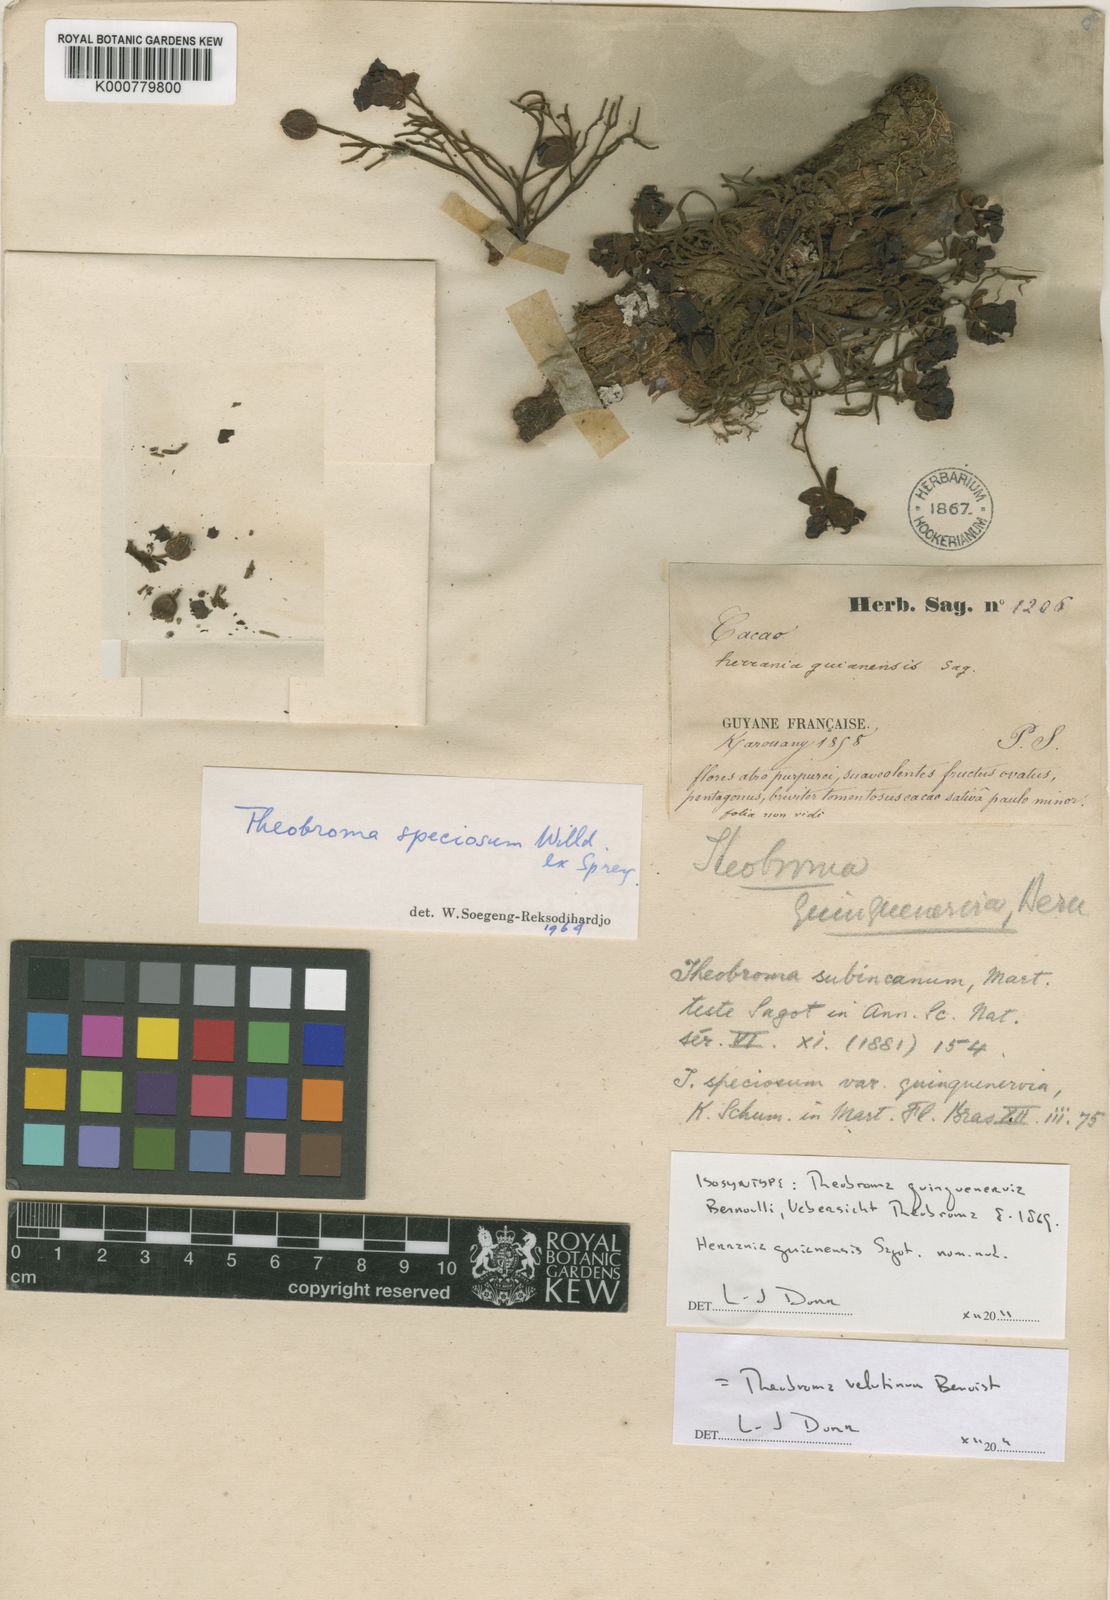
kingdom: Plantae
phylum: Tracheophyta
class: Magnoliopsida
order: Malvales
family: Malvaceae
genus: Theobroma
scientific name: Theobroma speciosum
